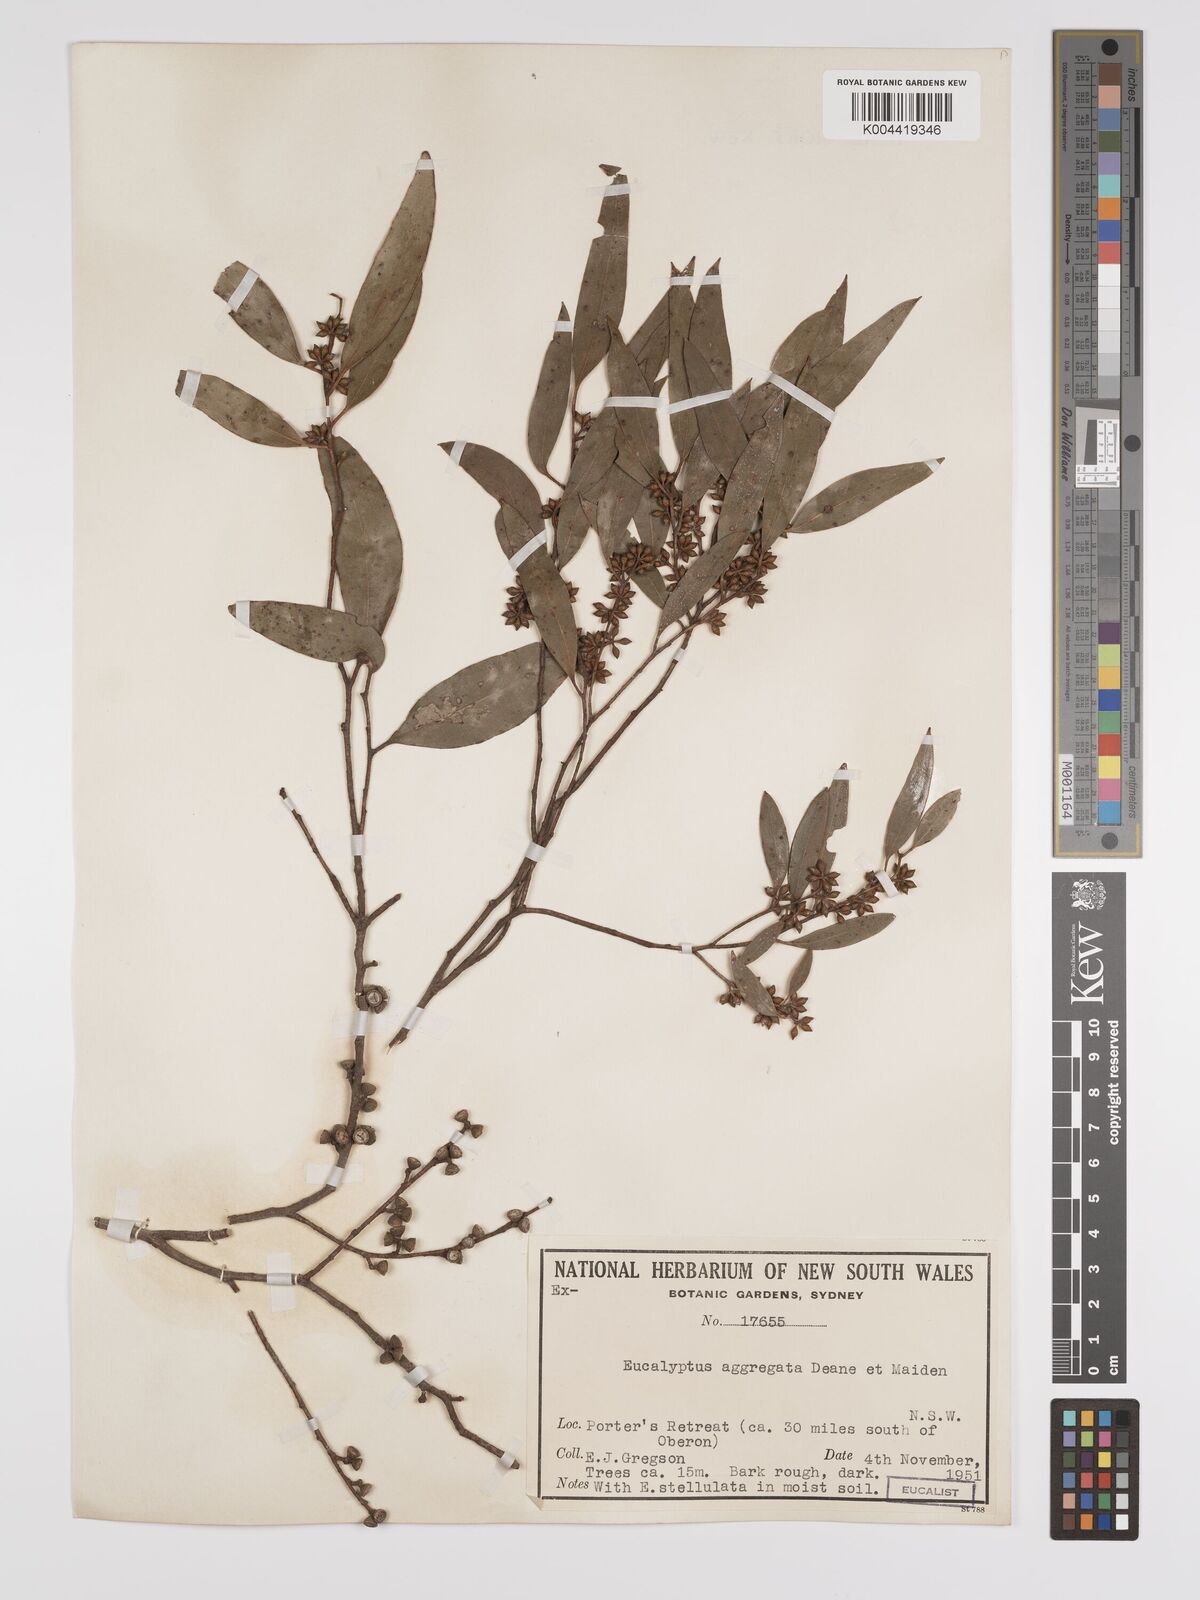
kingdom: Plantae
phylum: Tracheophyta
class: Magnoliopsida
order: Myrtales
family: Myrtaceae
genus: Eucalyptus
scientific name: Eucalyptus aggregata
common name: Black gum
